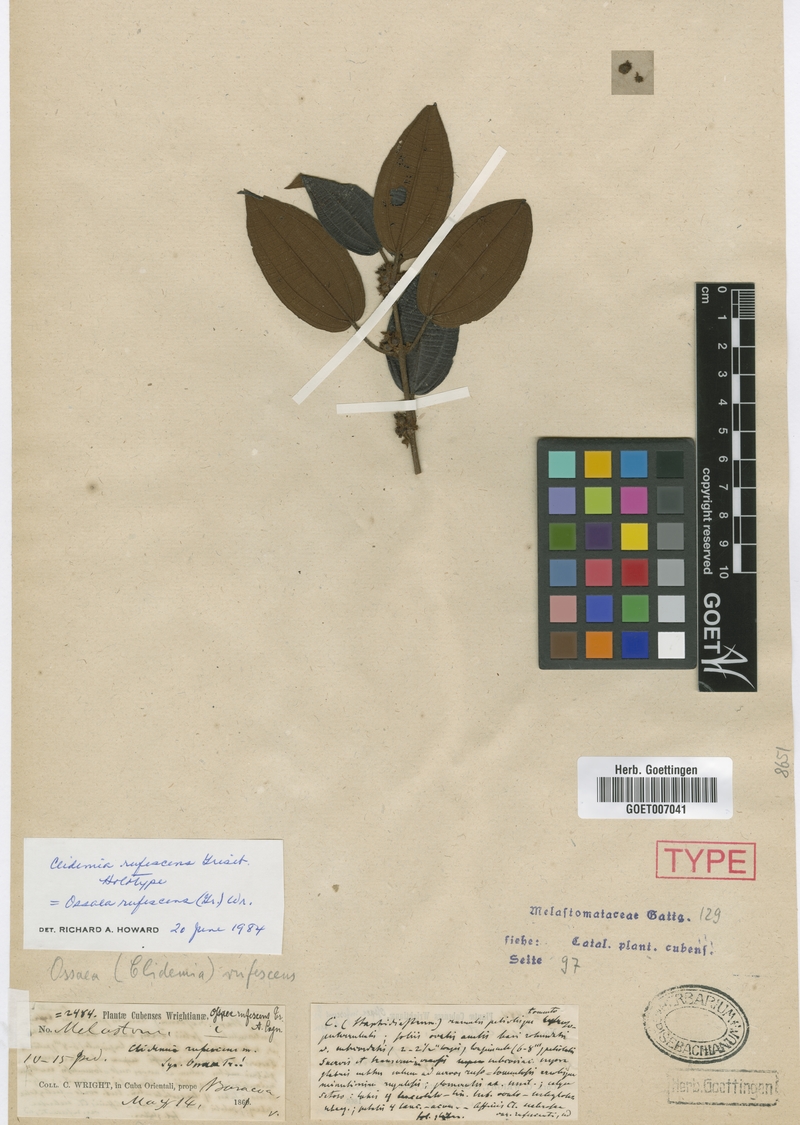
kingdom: Plantae
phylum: Tracheophyta
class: Magnoliopsida
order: Myrtales
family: Melastomataceae
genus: Miconia
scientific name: Miconia ruficaulis
